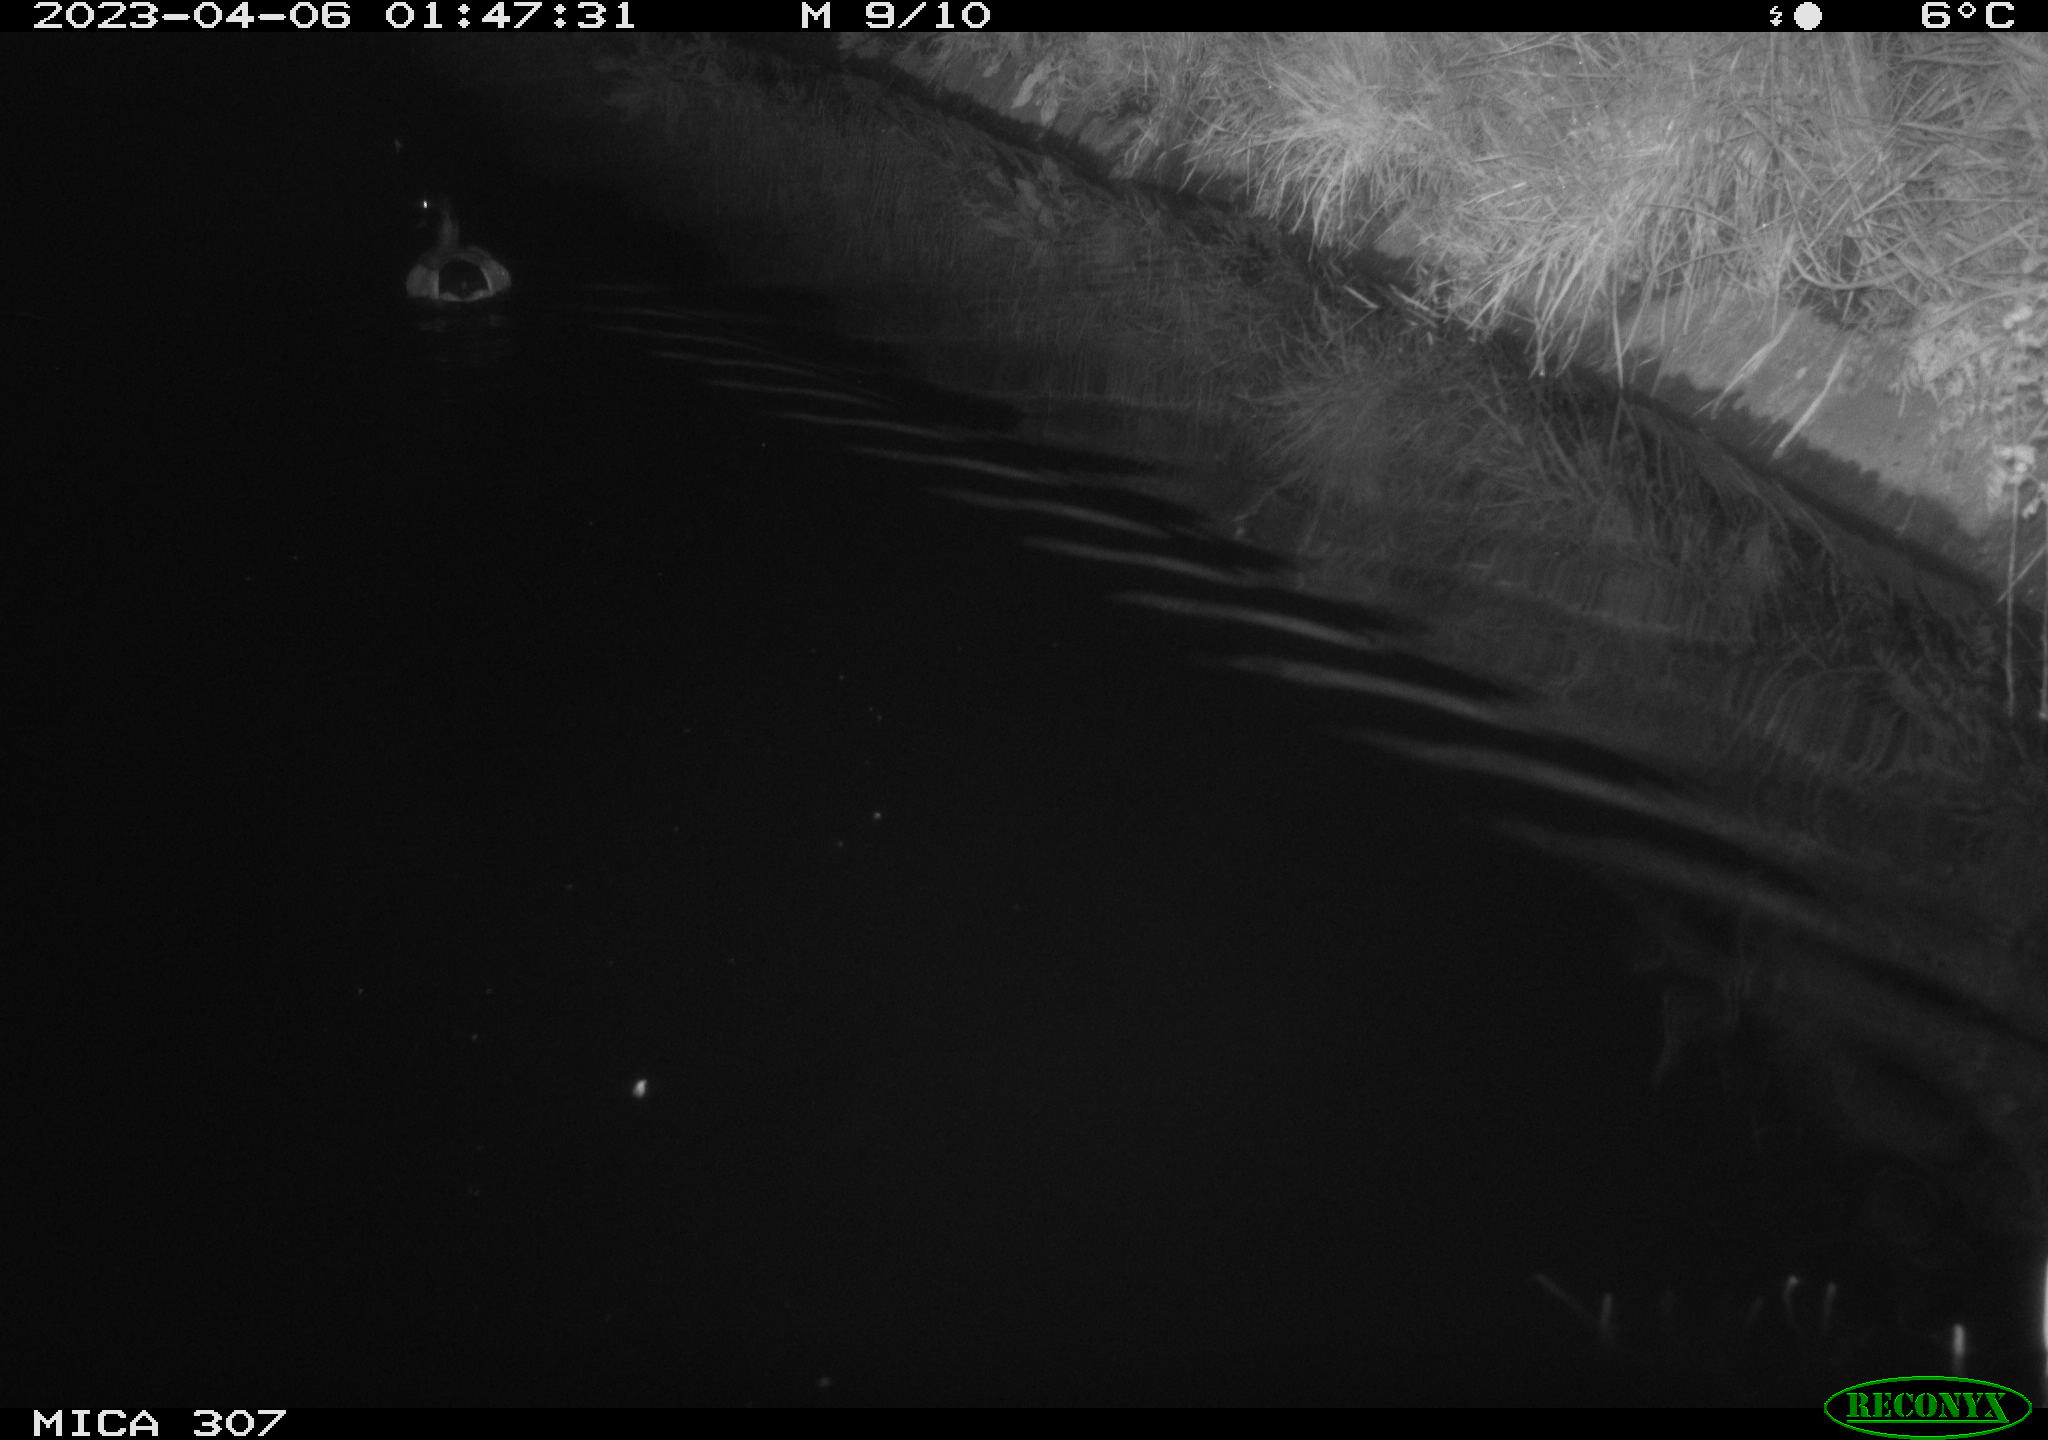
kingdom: Animalia
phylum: Chordata
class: Aves
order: Anseriformes
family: Anatidae
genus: Anas
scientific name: Anas
